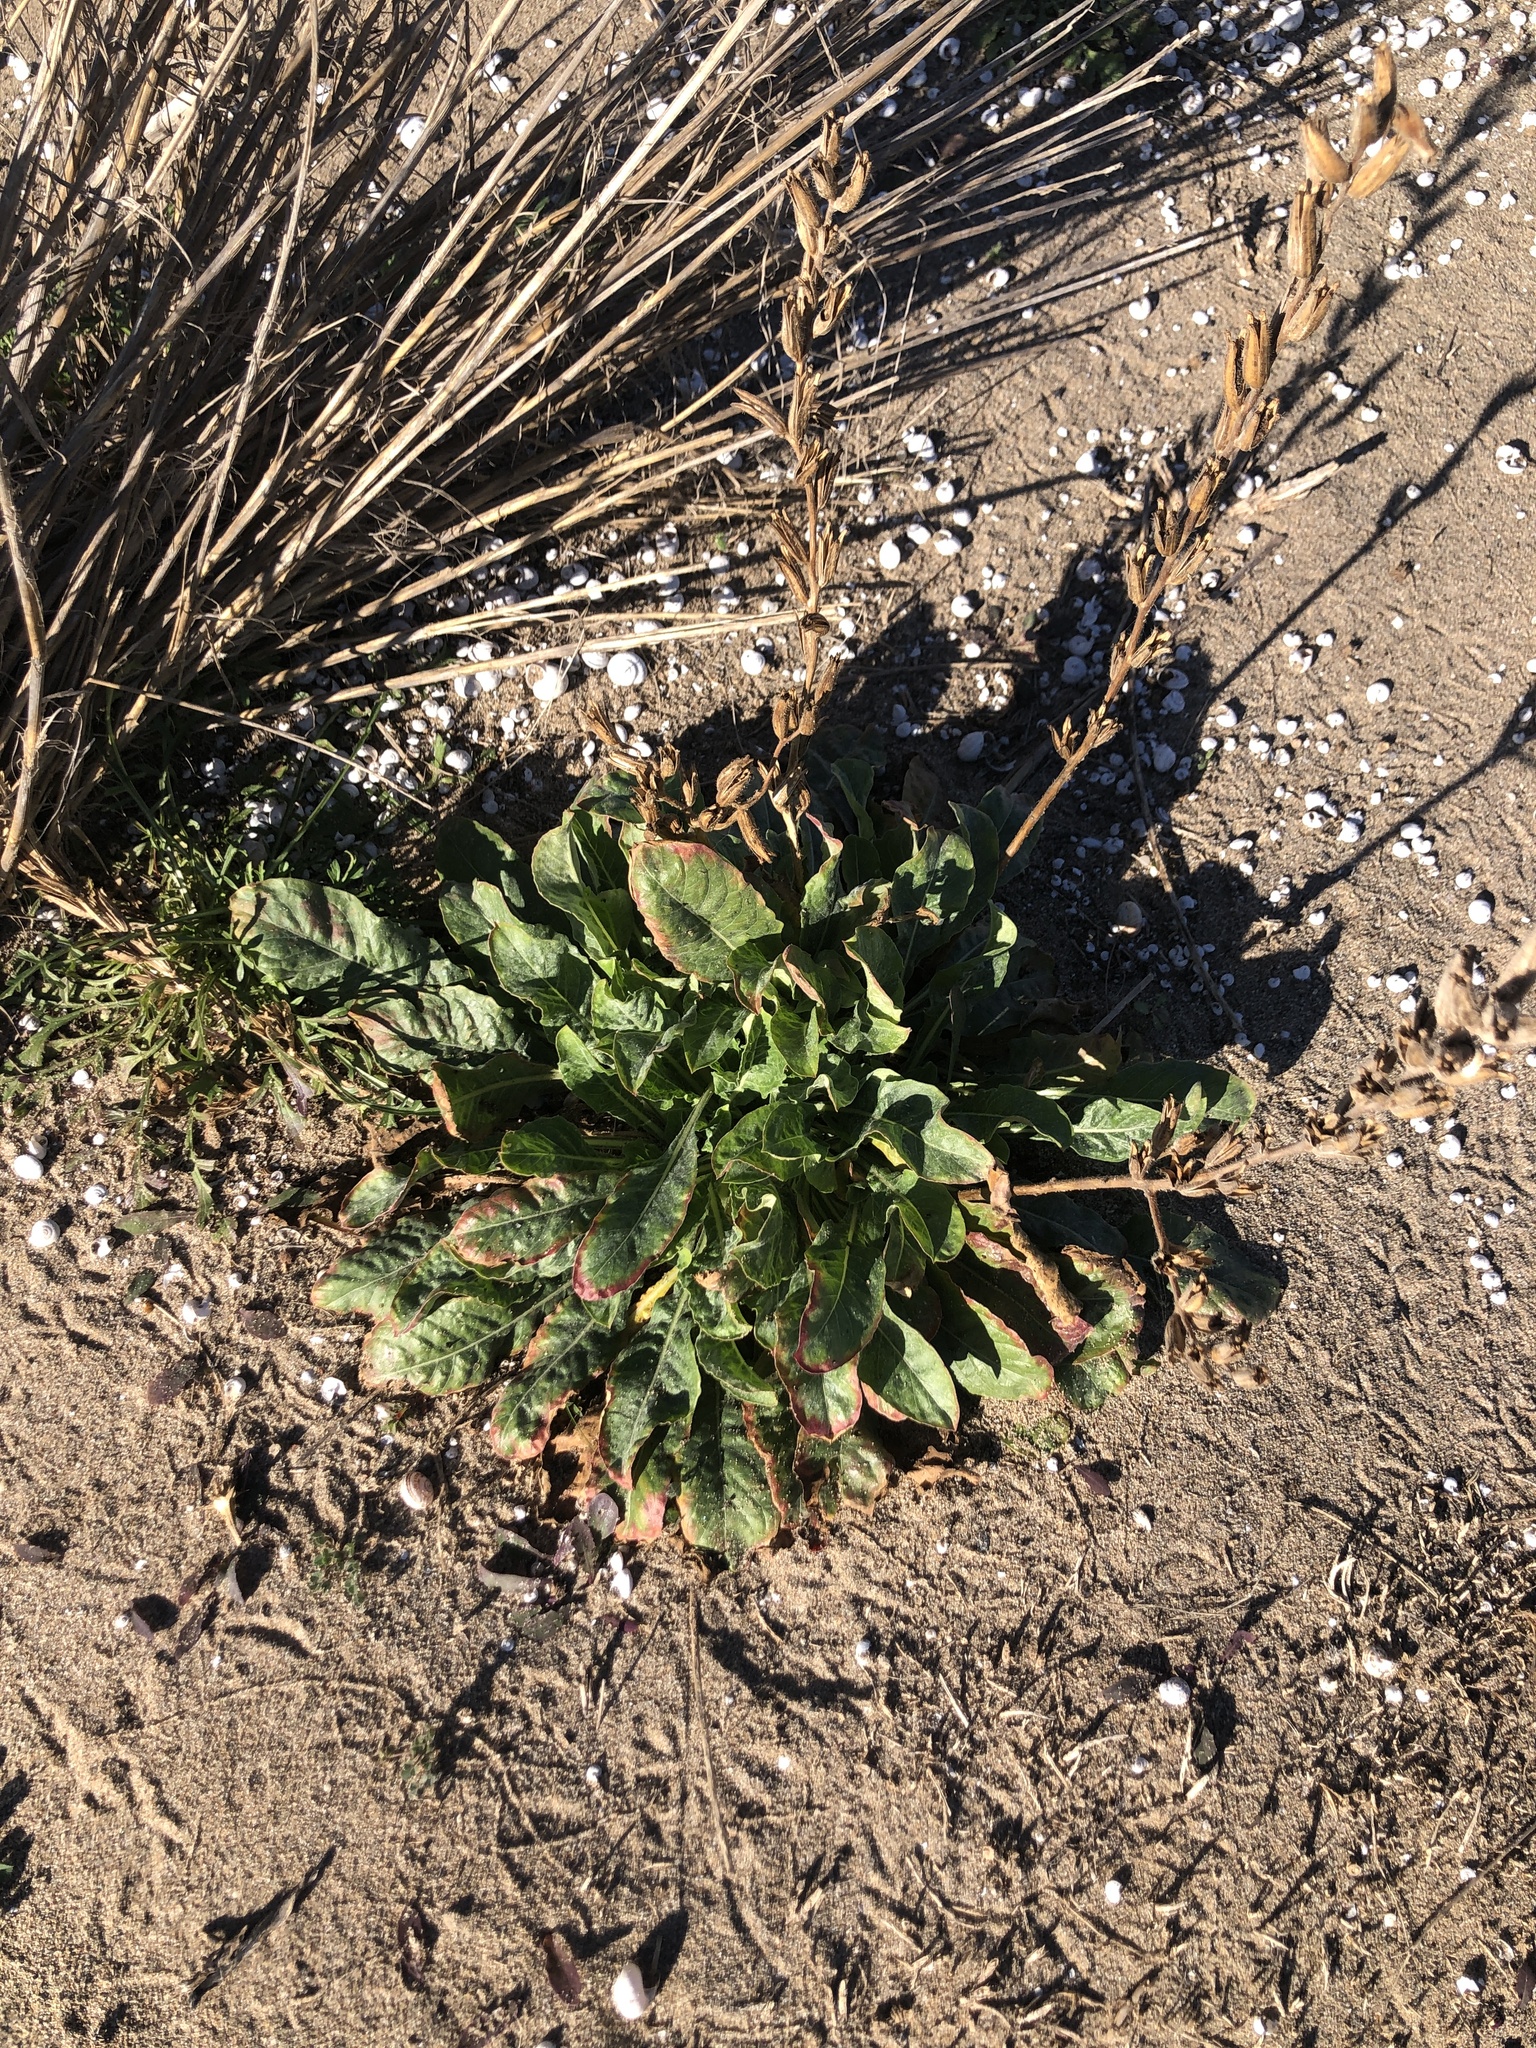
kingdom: Plantae
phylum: Tracheophyta
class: Magnoliopsida
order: Myrtales
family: Onagraceae
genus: Oenothera
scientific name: Oenothera glazioviana
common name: Large-flowered evening-primrose
